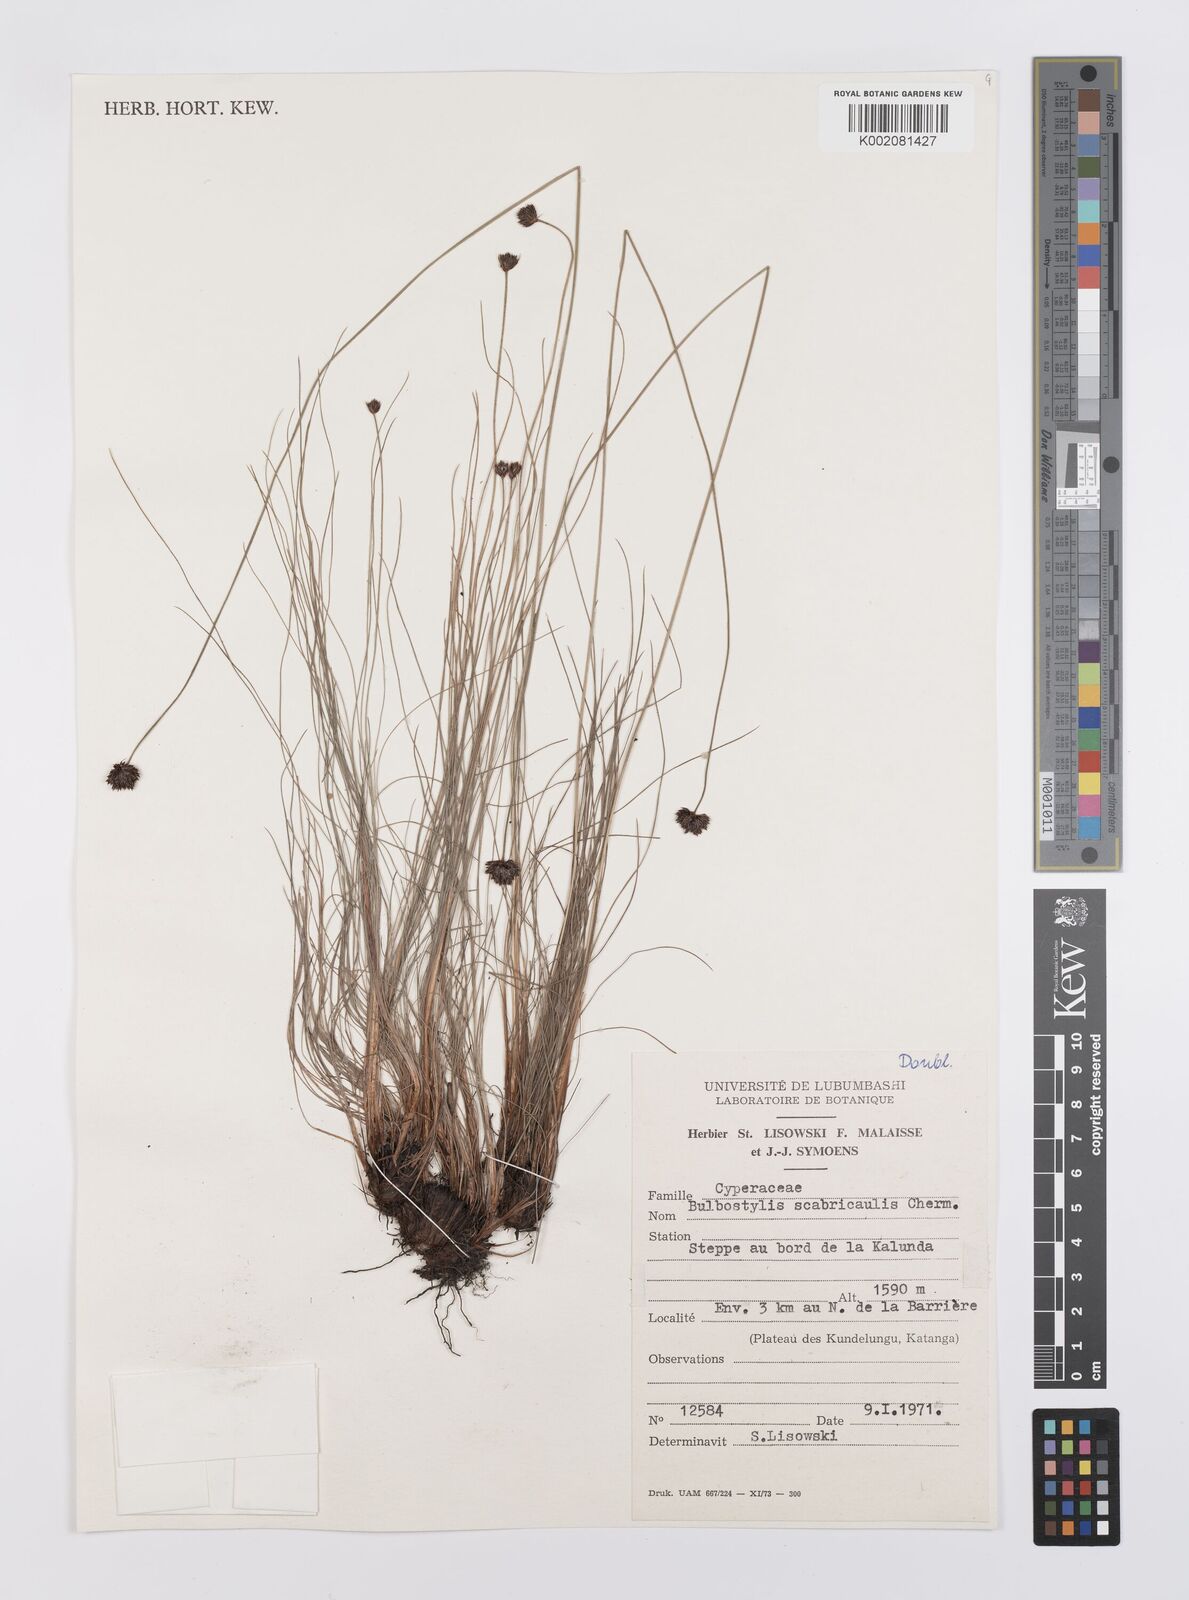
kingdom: Plantae
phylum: Tracheophyta
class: Liliopsida
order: Poales
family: Cyperaceae
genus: Bulbostylis
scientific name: Bulbostylis filamentosa
